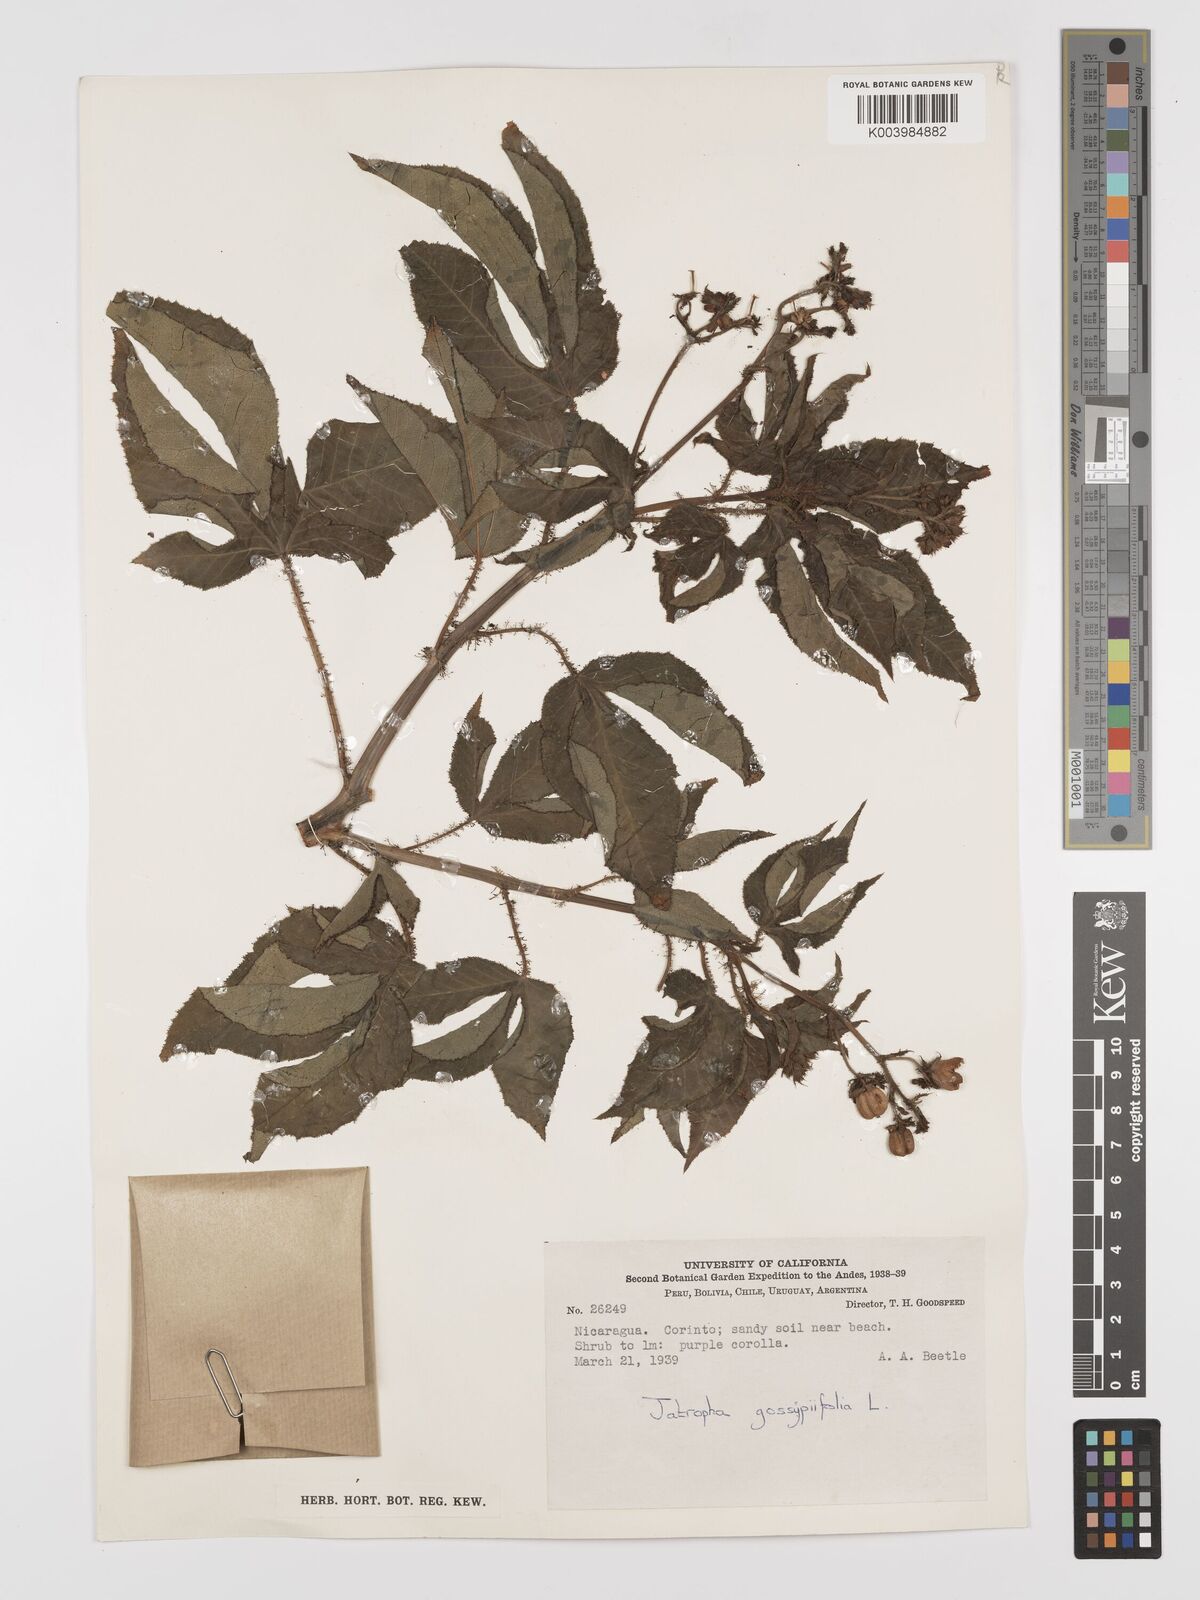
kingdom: Plantae
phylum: Tracheophyta
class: Magnoliopsida
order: Malpighiales
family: Euphorbiaceae
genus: Jatropha
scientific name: Jatropha gossypiifolia
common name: Bellyache bush
